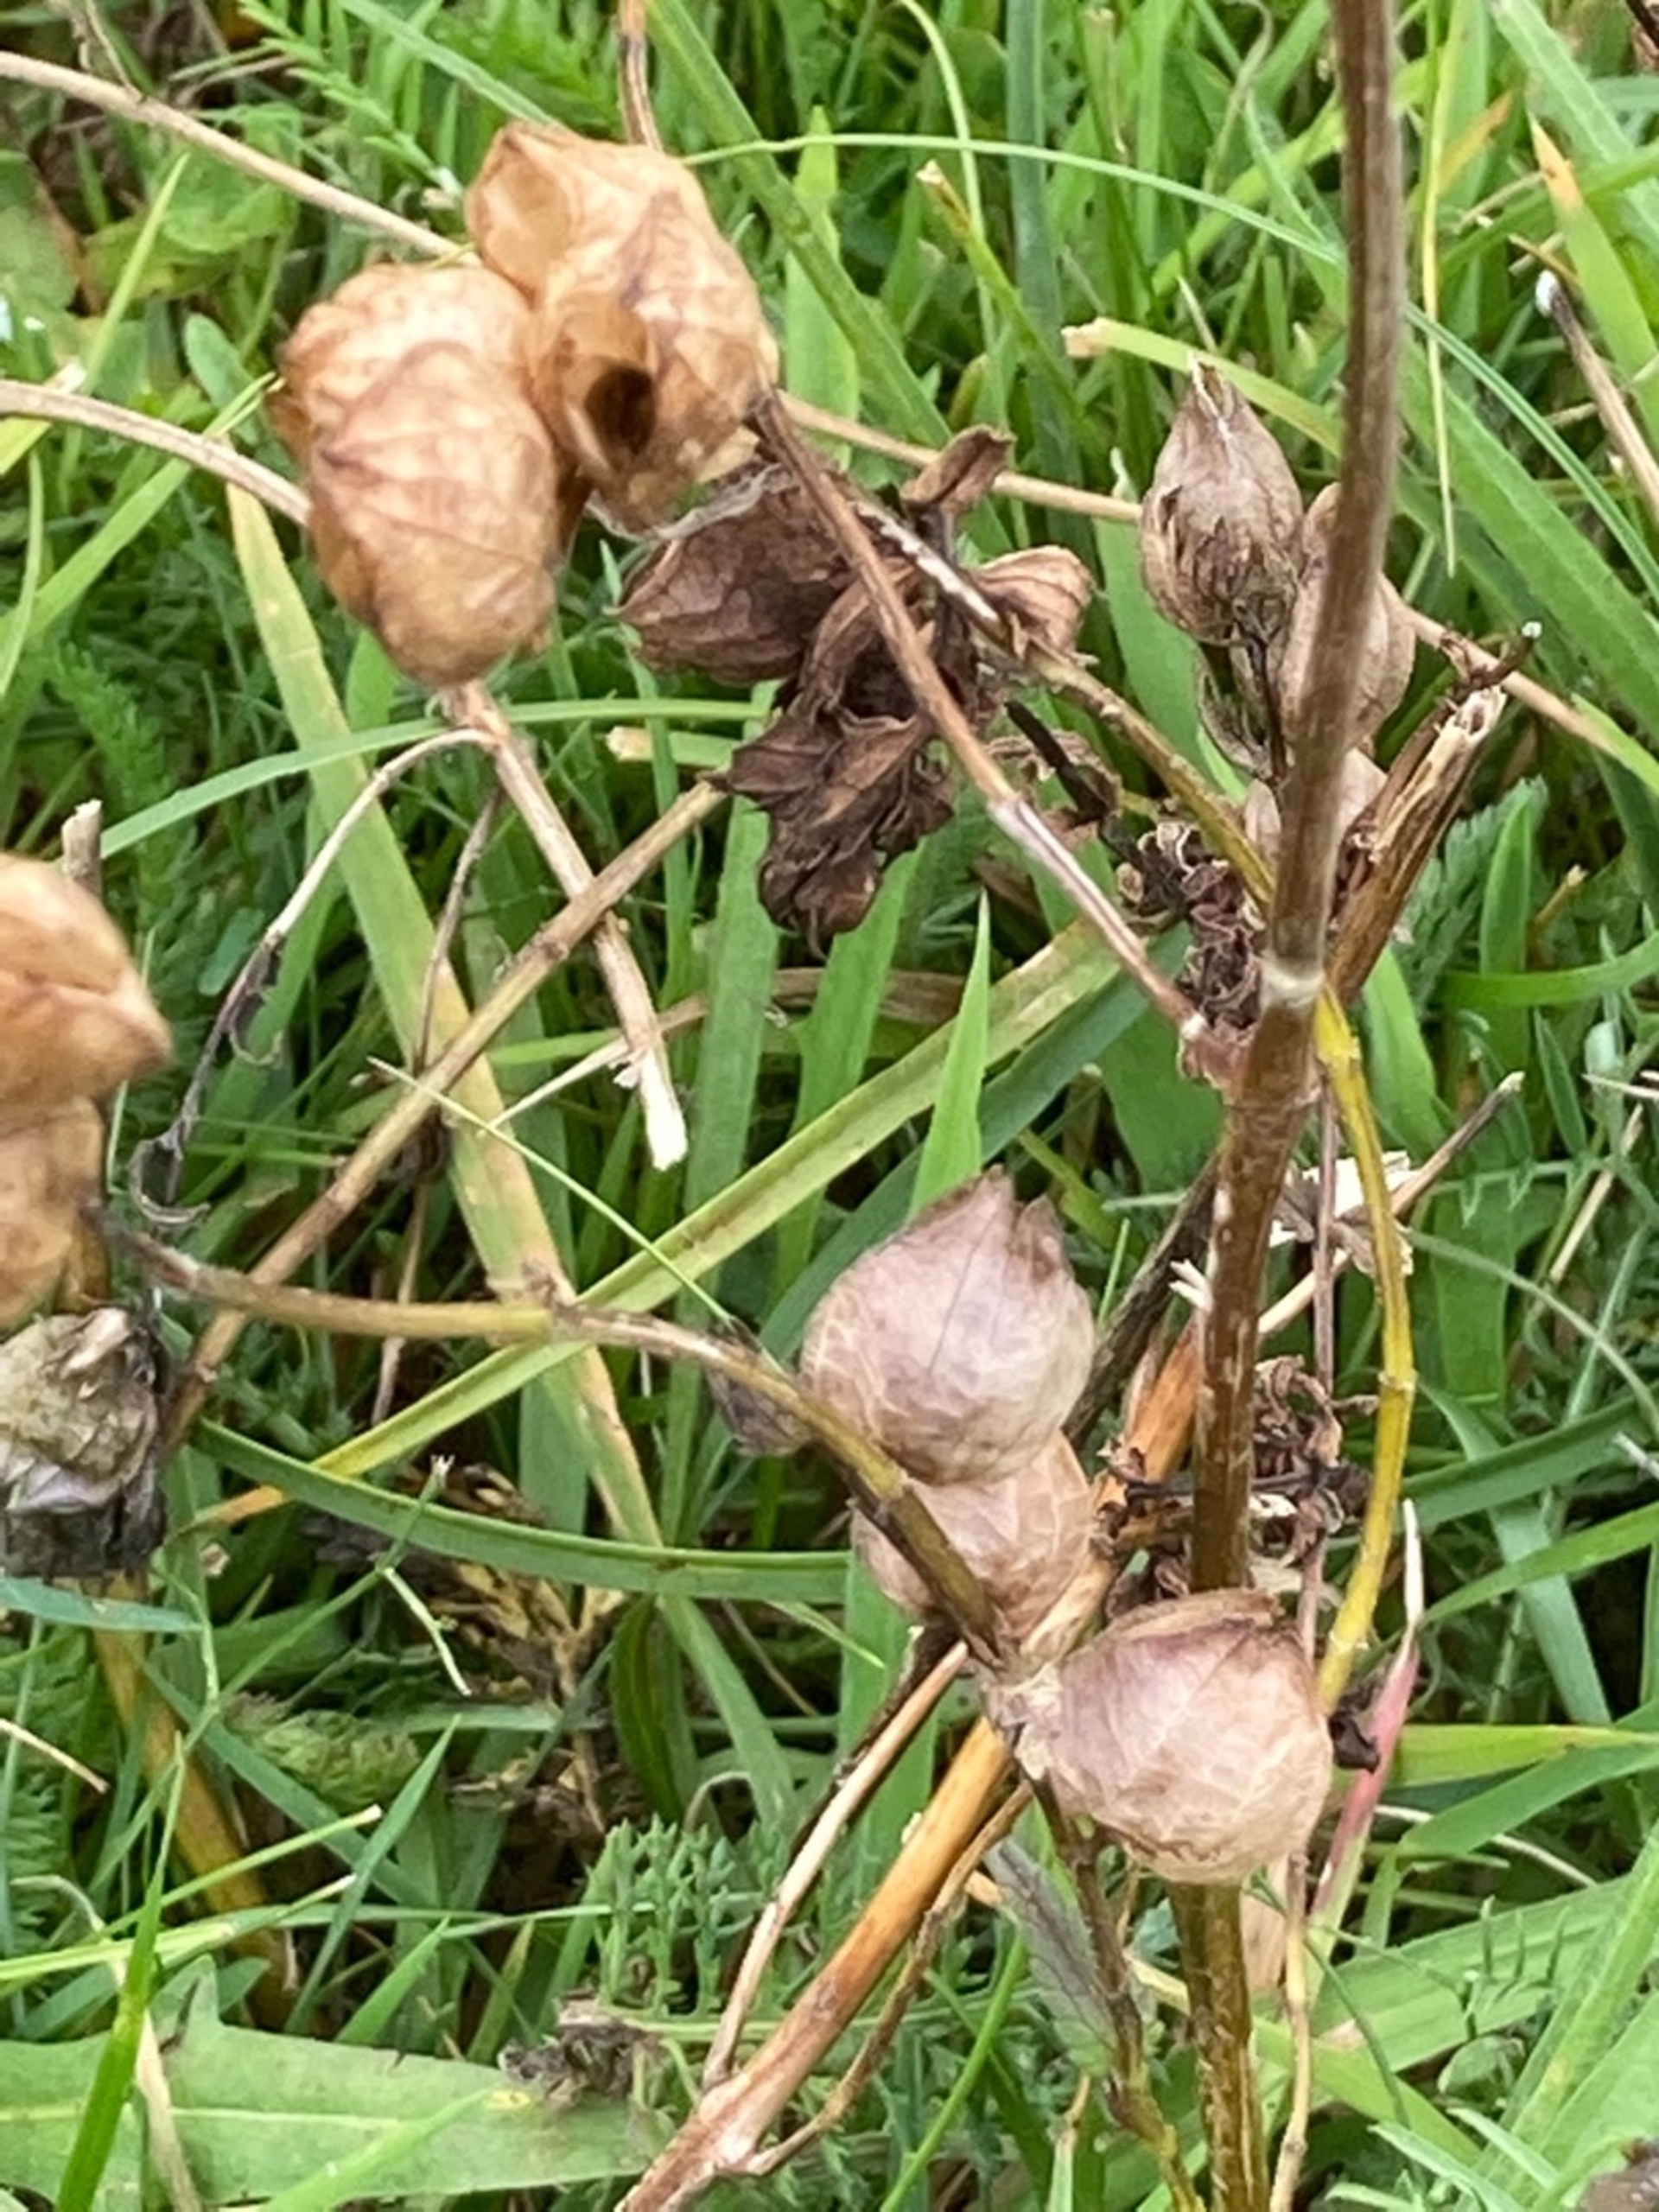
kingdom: Plantae
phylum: Tracheophyta
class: Magnoliopsida
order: Lamiales
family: Orobanchaceae
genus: Rhinanthus
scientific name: Rhinanthus
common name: Skjallerslægten
